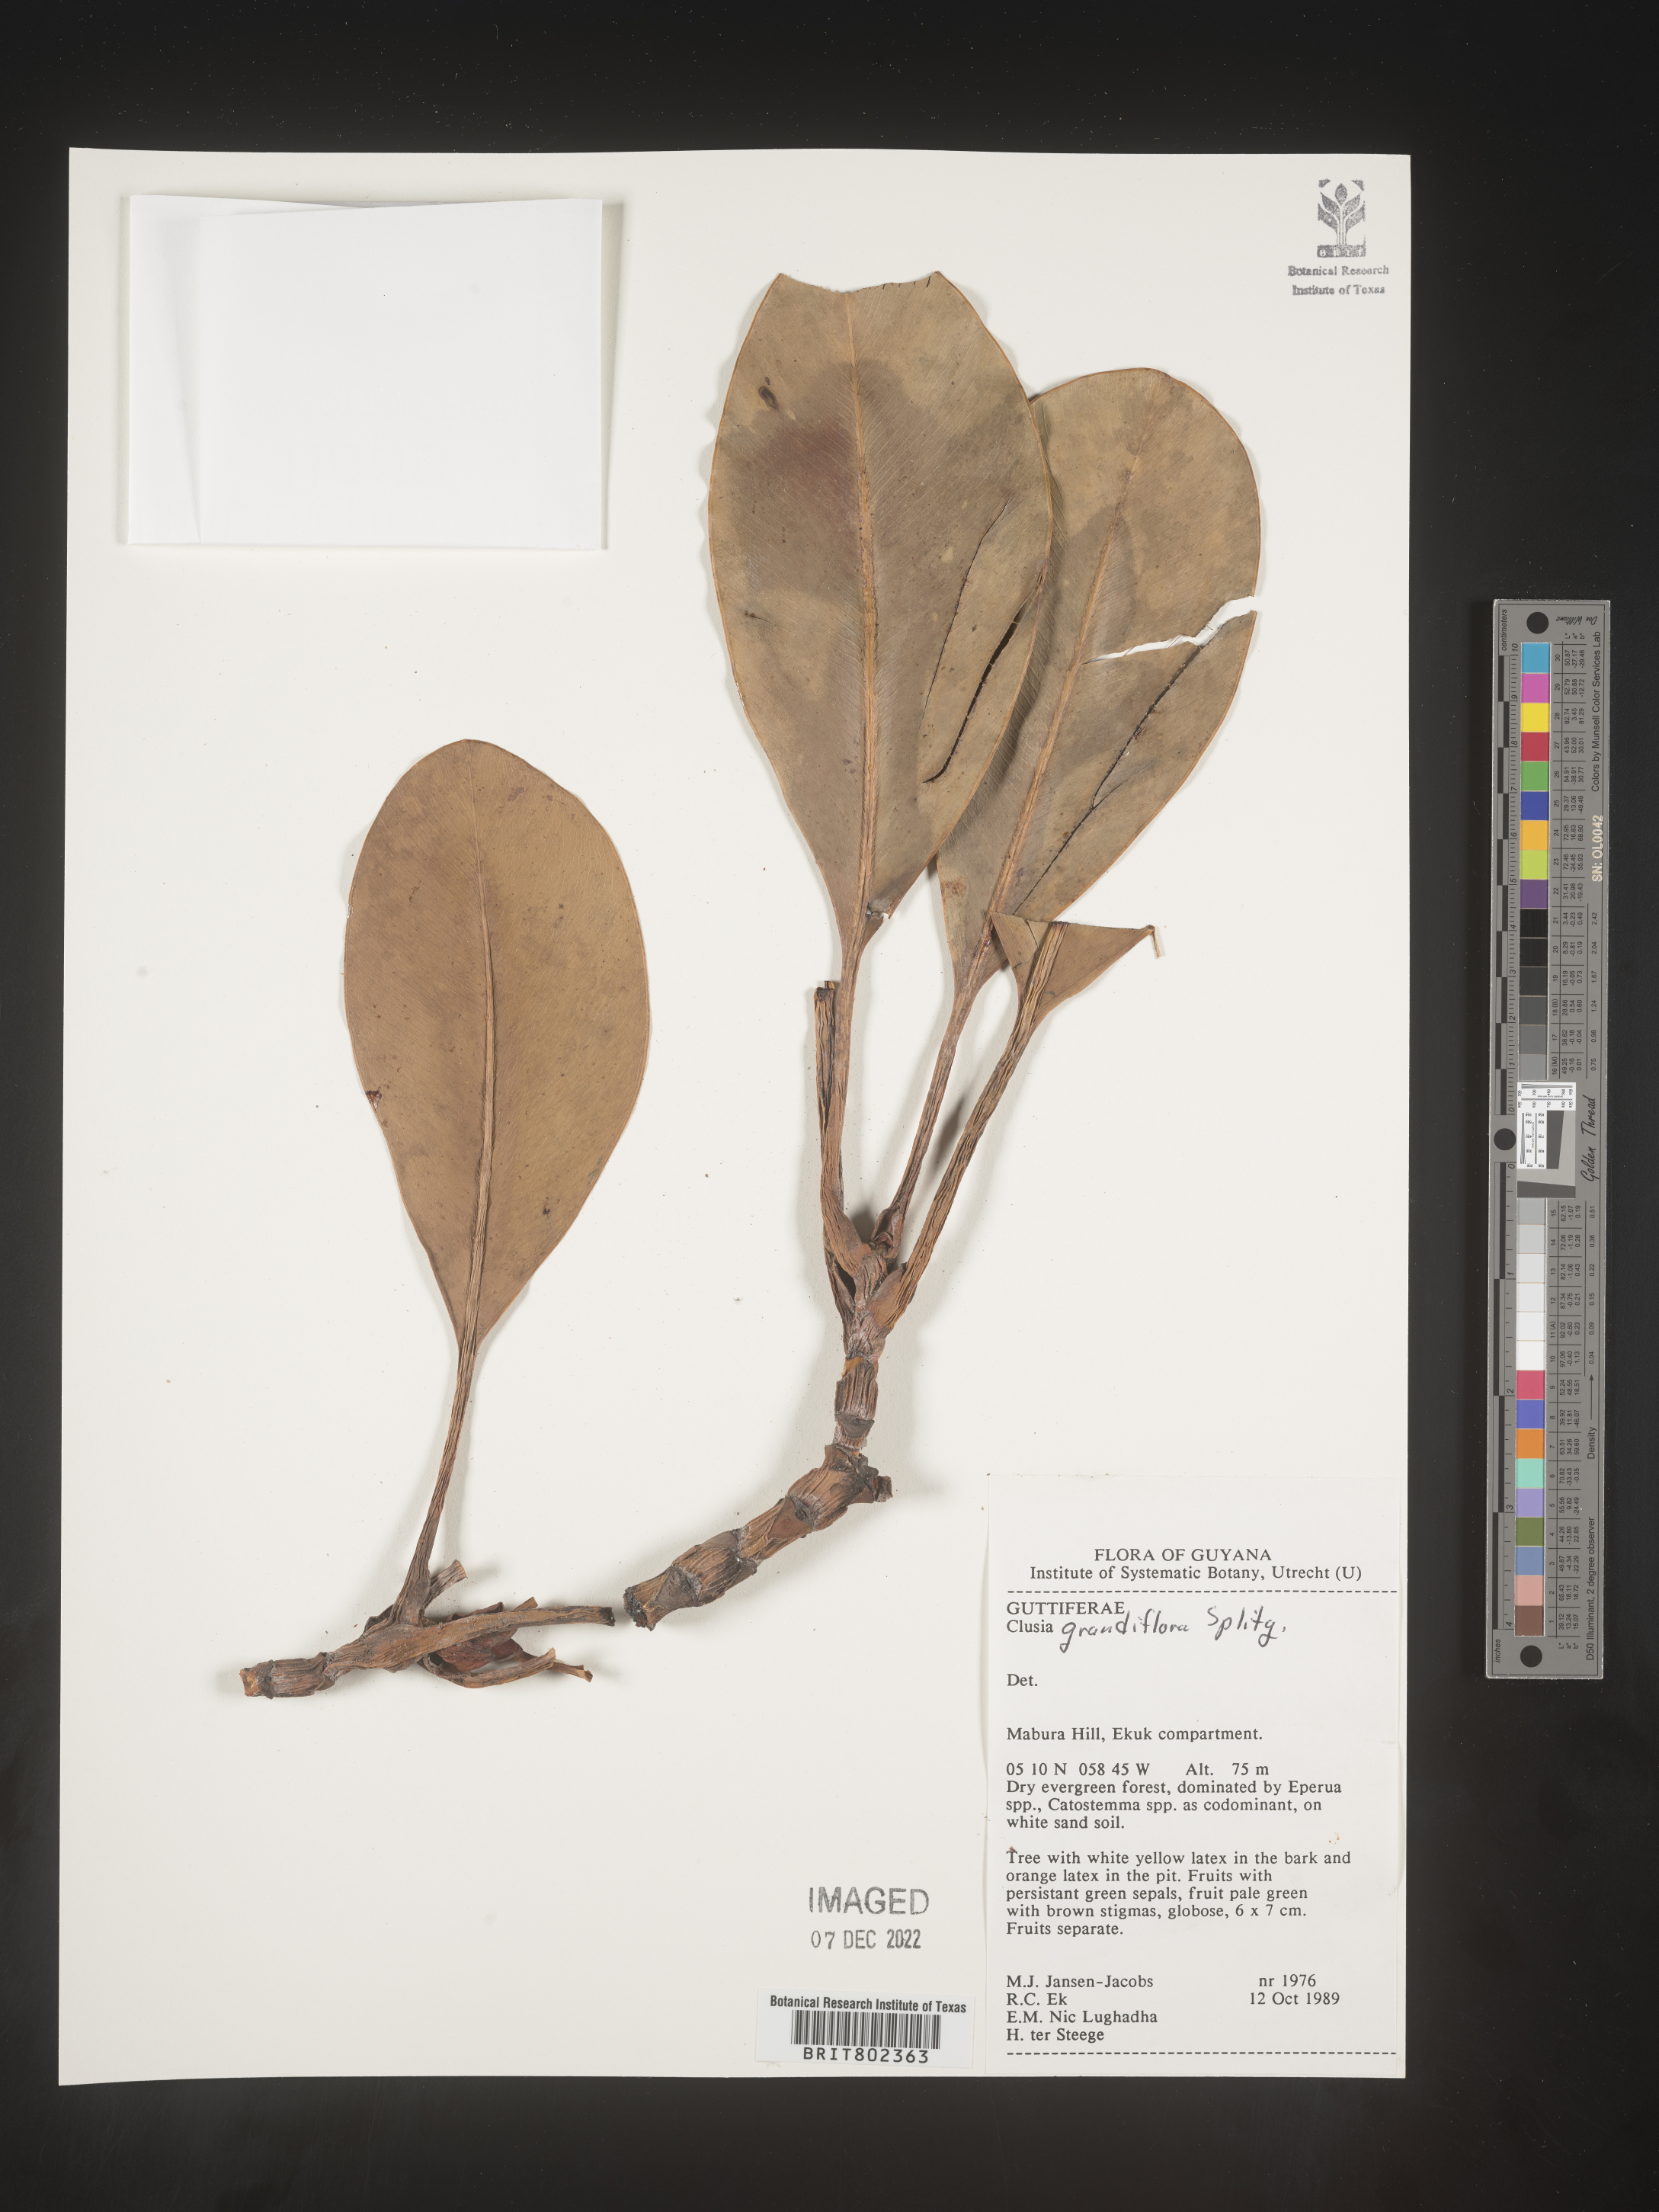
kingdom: Plantae
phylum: Tracheophyta
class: Magnoliopsida
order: Malpighiales
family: Clusiaceae
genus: Clusia
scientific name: Clusia grandiflora
